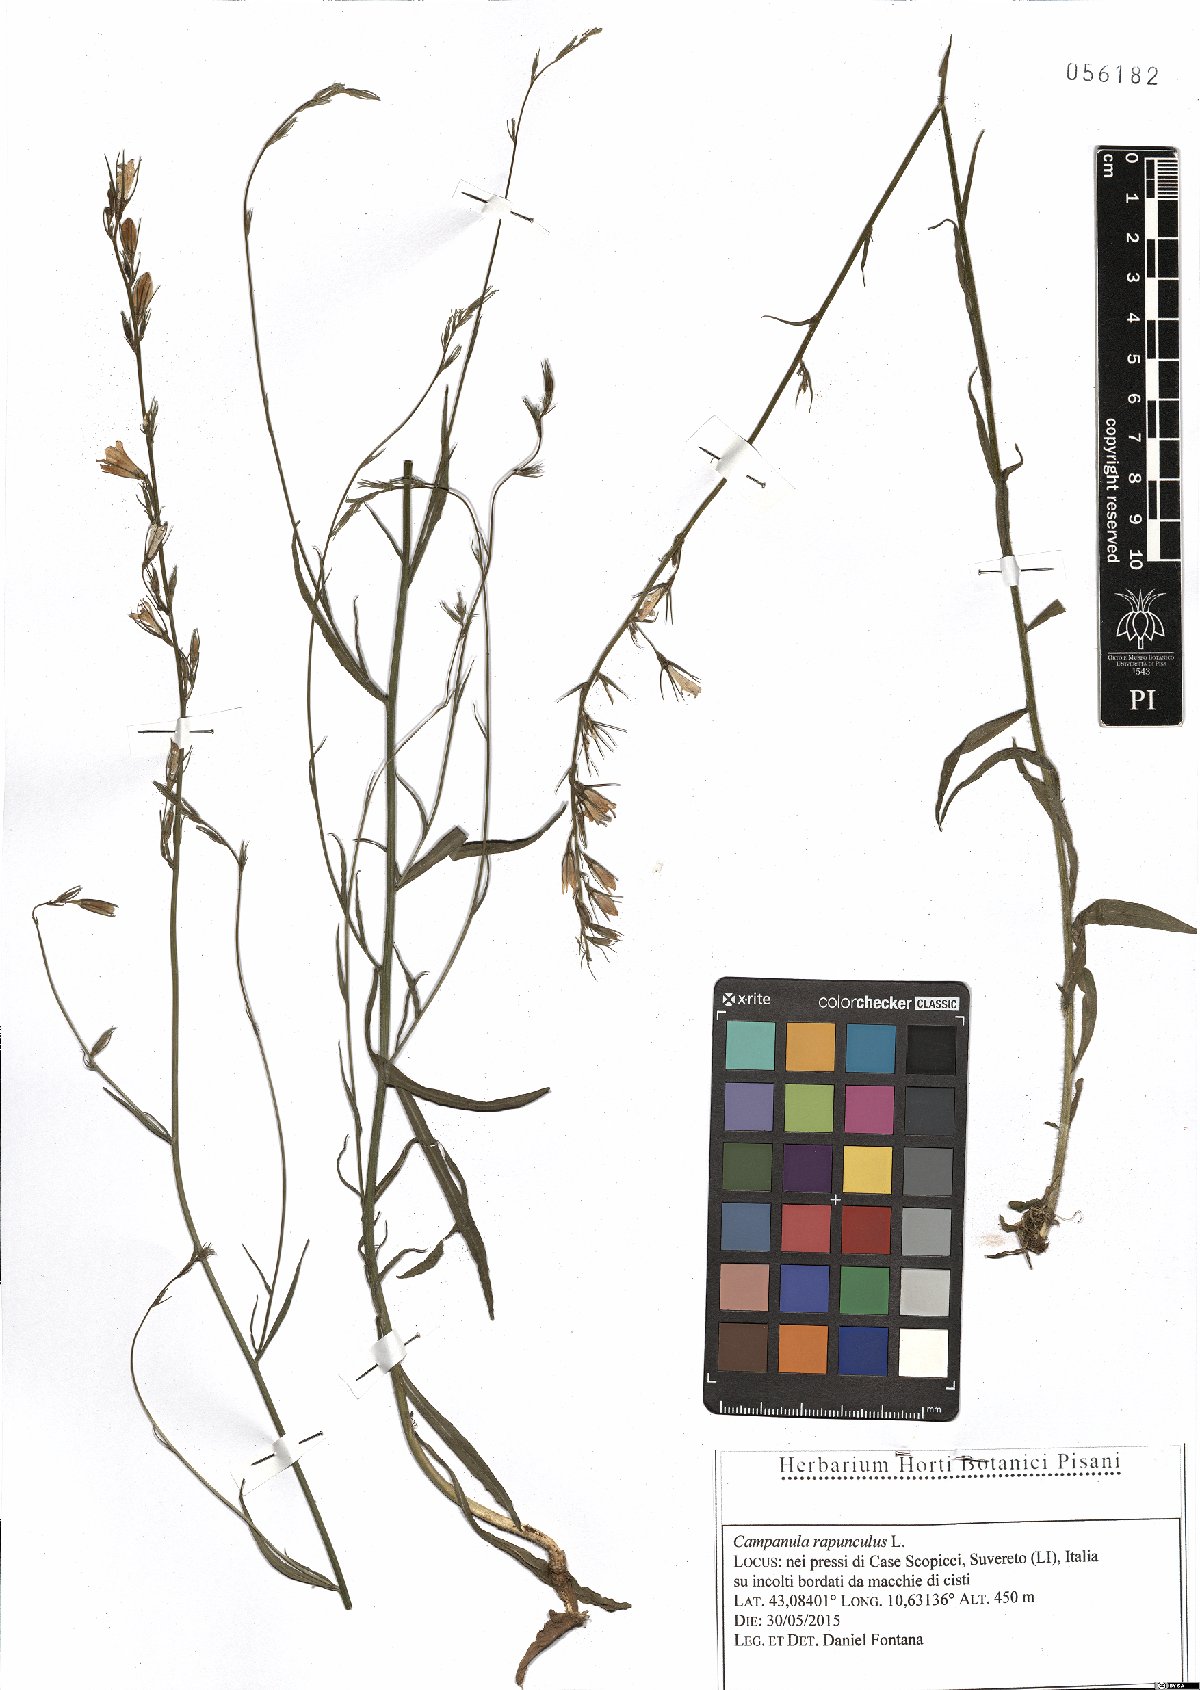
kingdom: Plantae
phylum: Tracheophyta
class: Magnoliopsida
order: Asterales
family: Campanulaceae
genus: Campanula
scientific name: Campanula rapunculus
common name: Rampion bellflower
